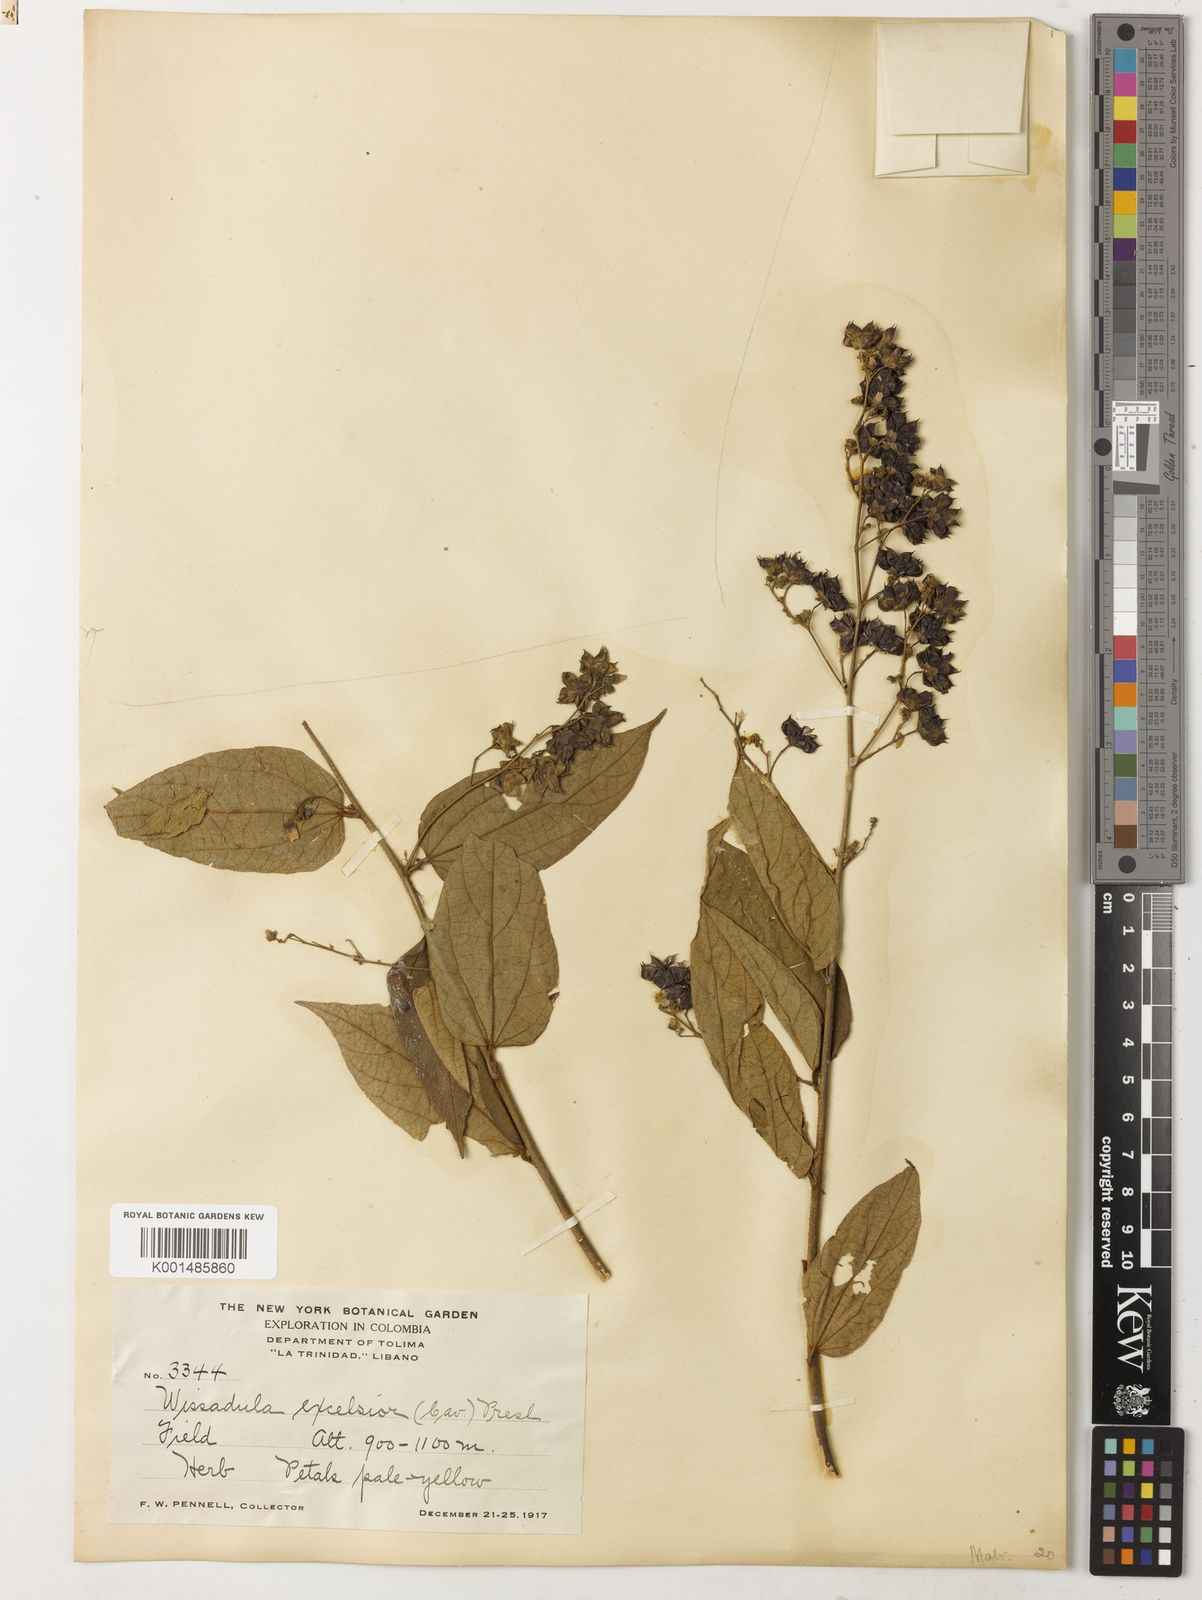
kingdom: Plantae
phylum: Tracheophyta
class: Magnoliopsida
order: Malvales
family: Malvaceae
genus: Wissadula
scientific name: Wissadula excelsior
